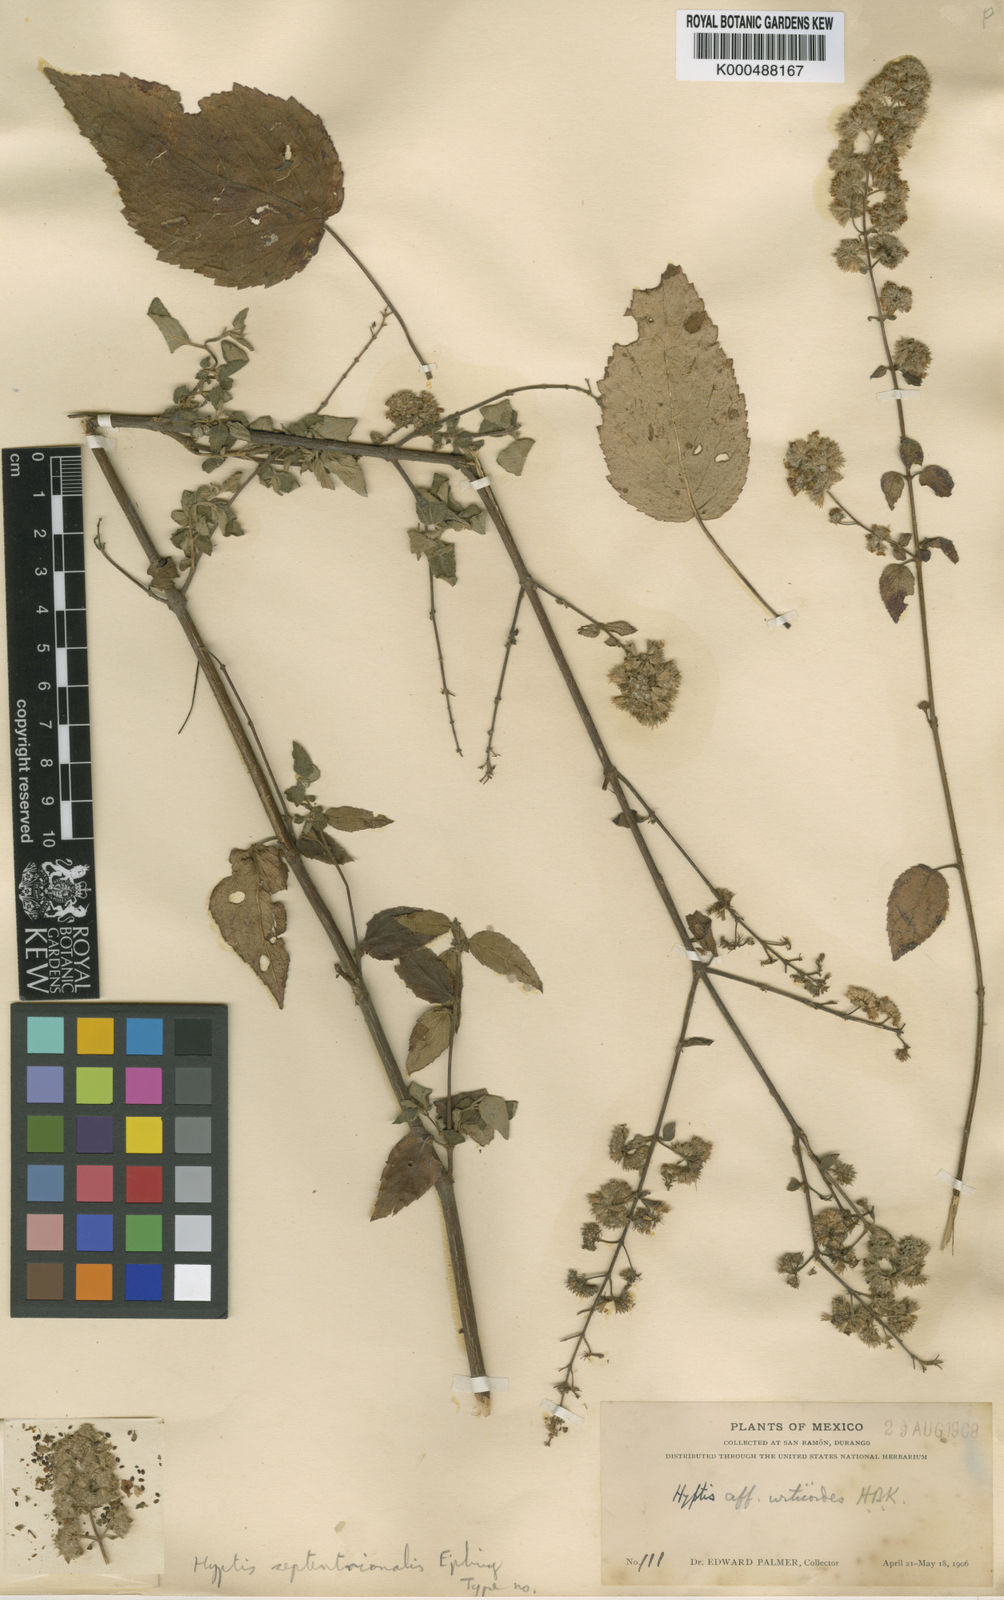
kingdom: Plantae
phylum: Tracheophyta
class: Magnoliopsida
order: Lamiales
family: Lamiaceae
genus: Mesosphaerum
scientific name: Mesosphaerum septentrionale
